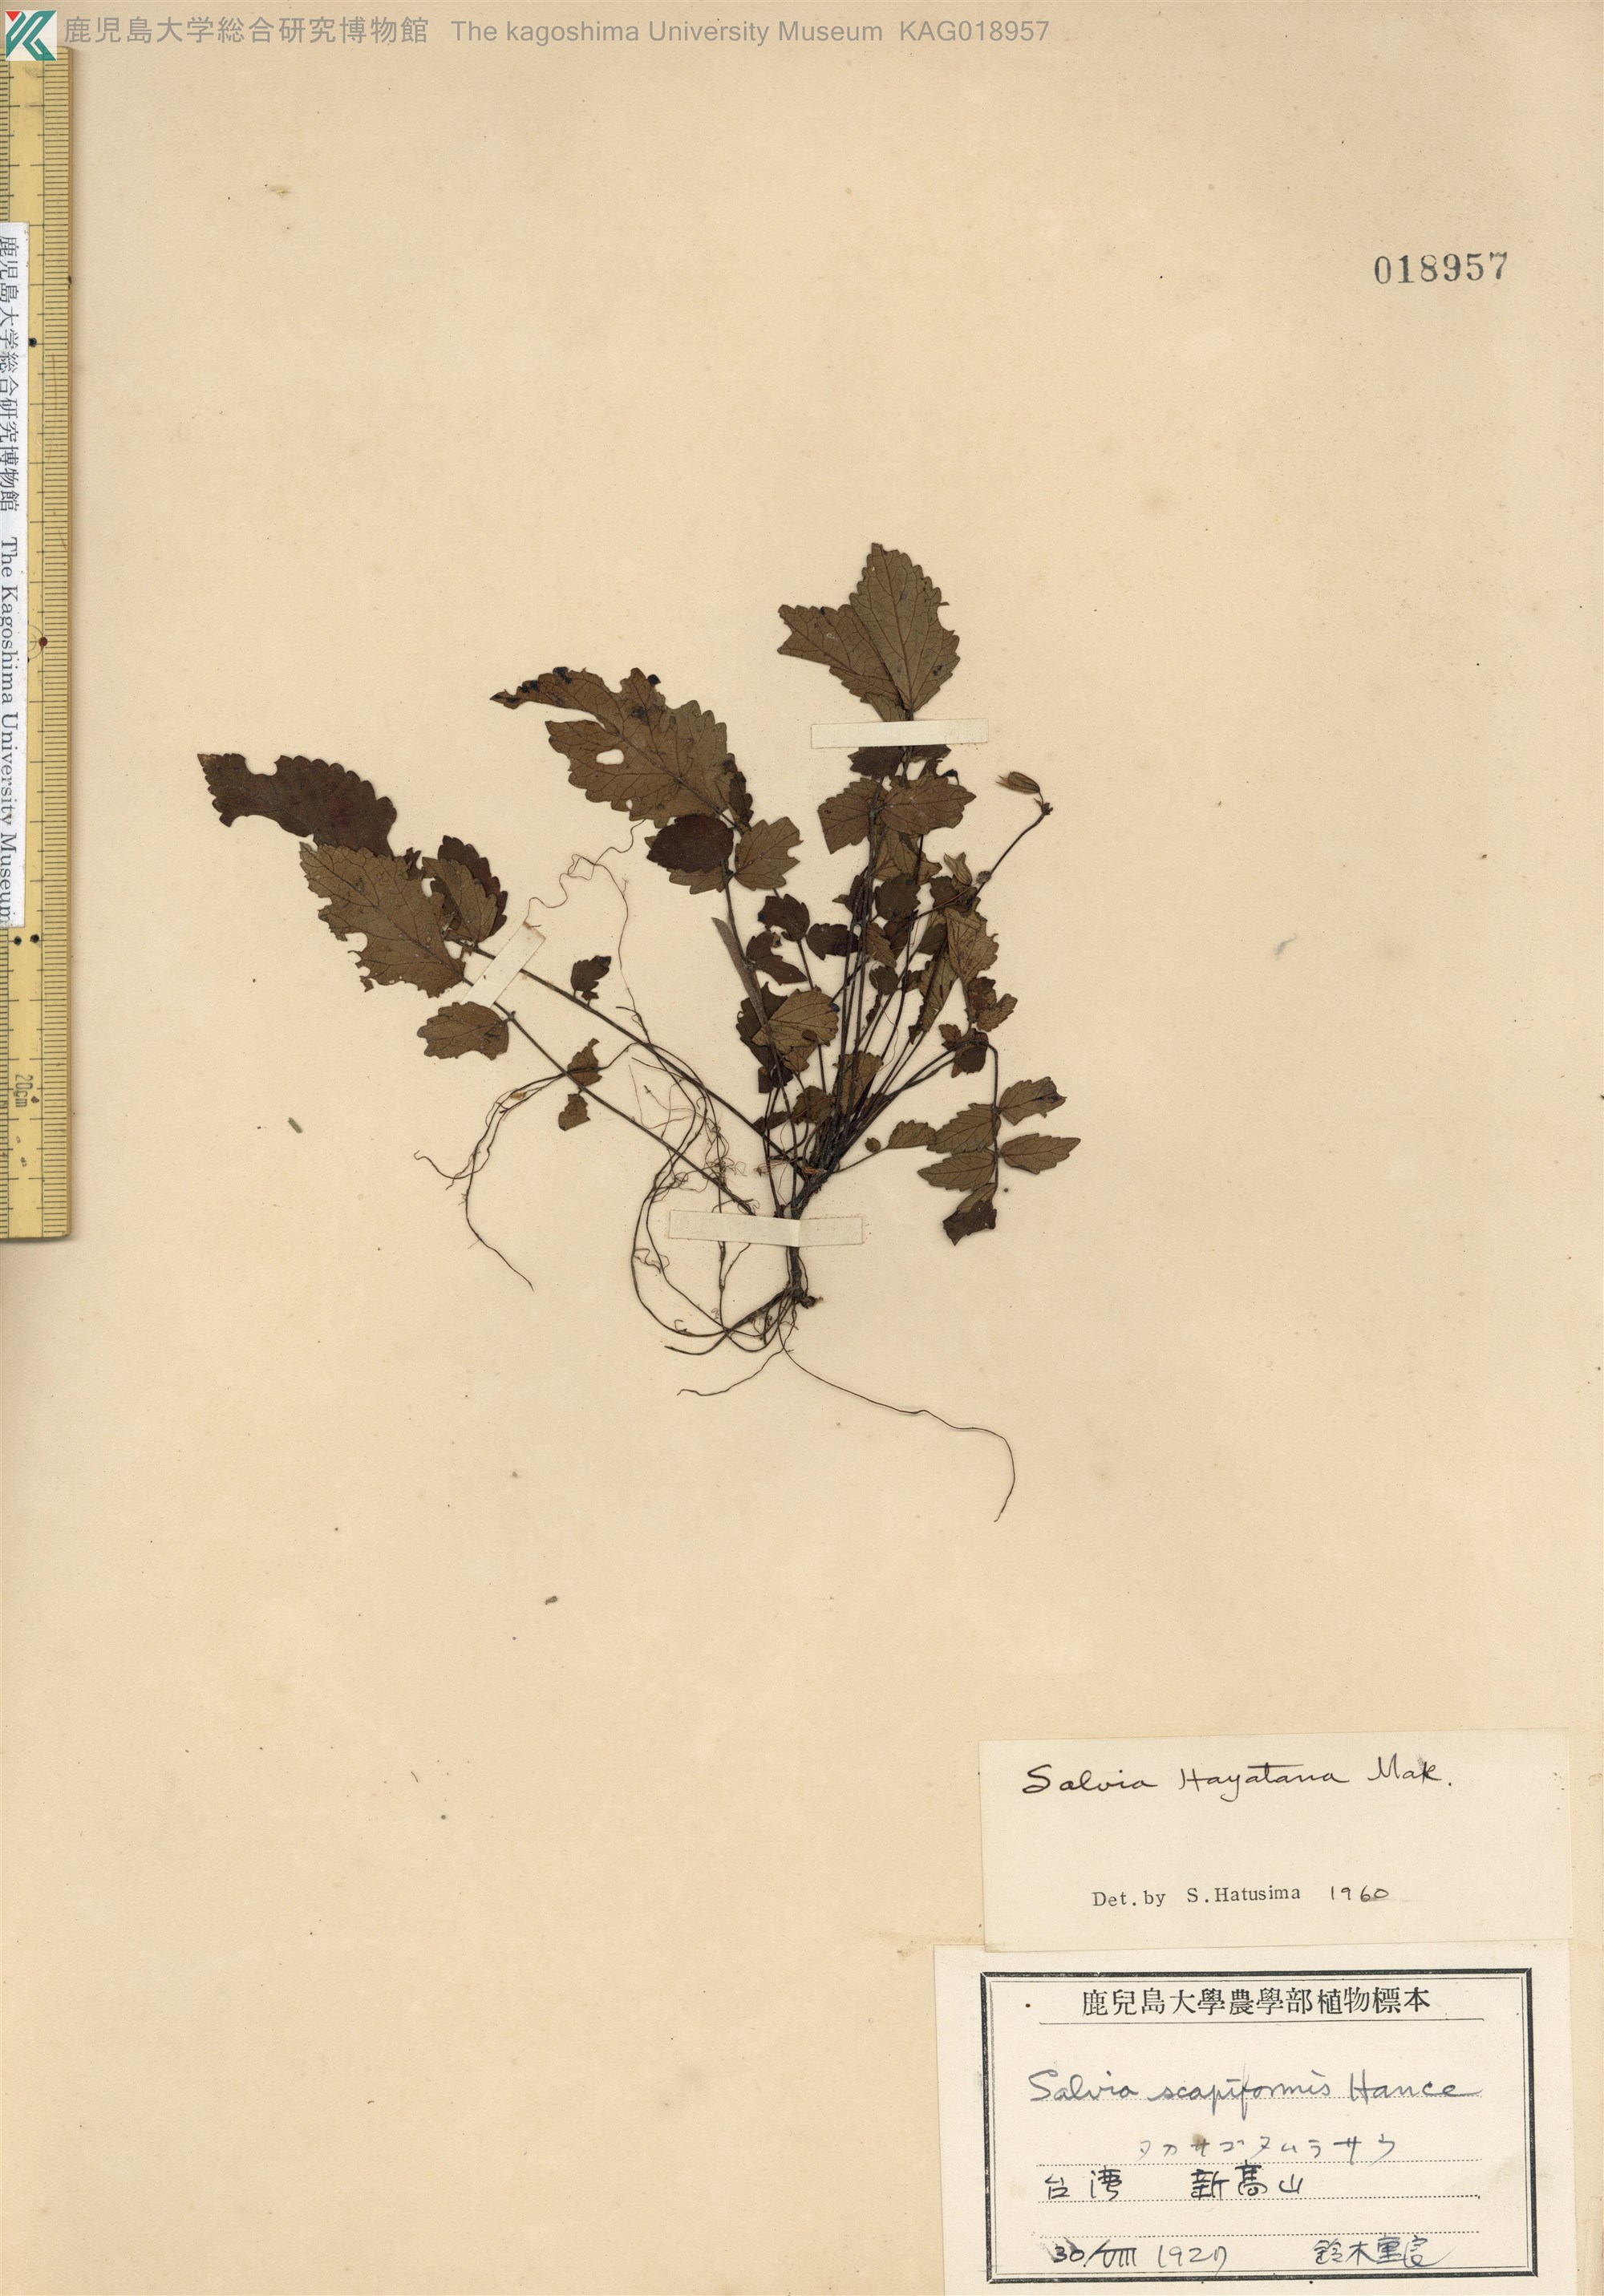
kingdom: Plantae
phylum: Tracheophyta
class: Magnoliopsida
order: Lamiales
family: Lamiaceae
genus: Salvia
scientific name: Salvia hayatae
